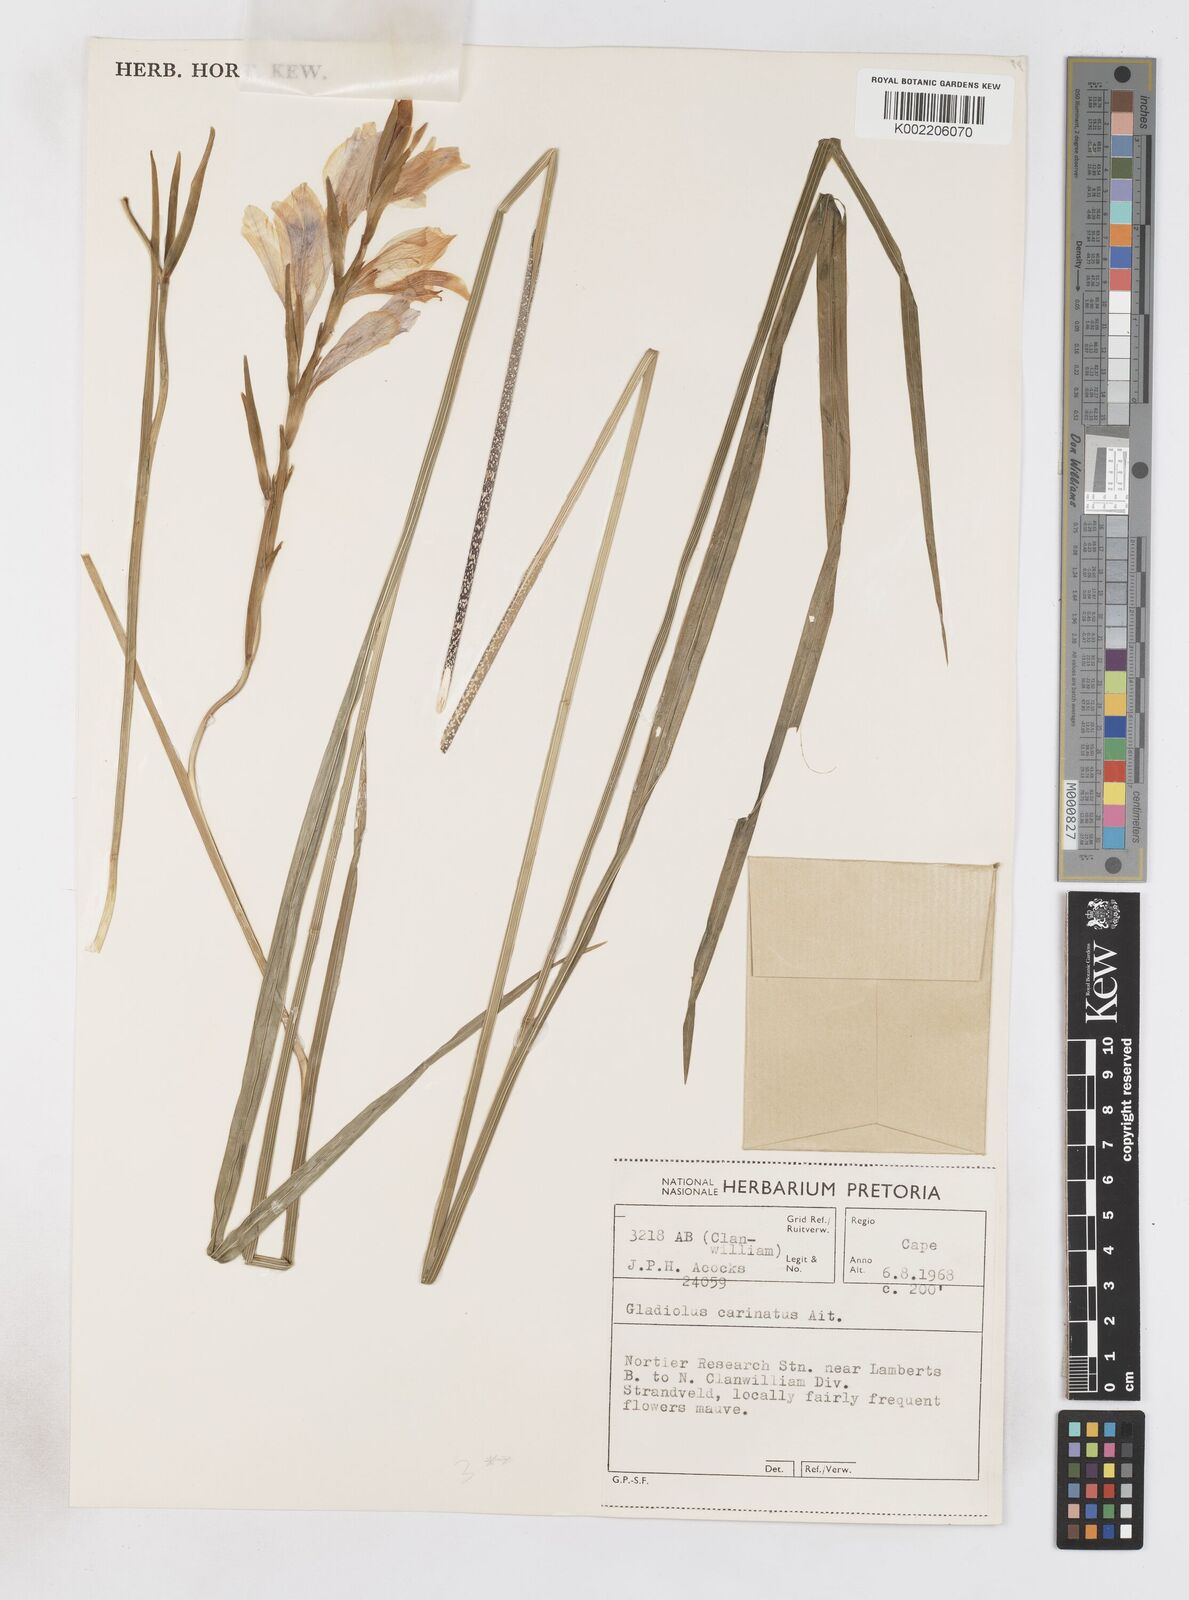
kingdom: Plantae
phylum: Tracheophyta
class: Liliopsida
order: Asparagales
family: Iridaceae
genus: Gladiolus
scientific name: Gladiolus carinatus
